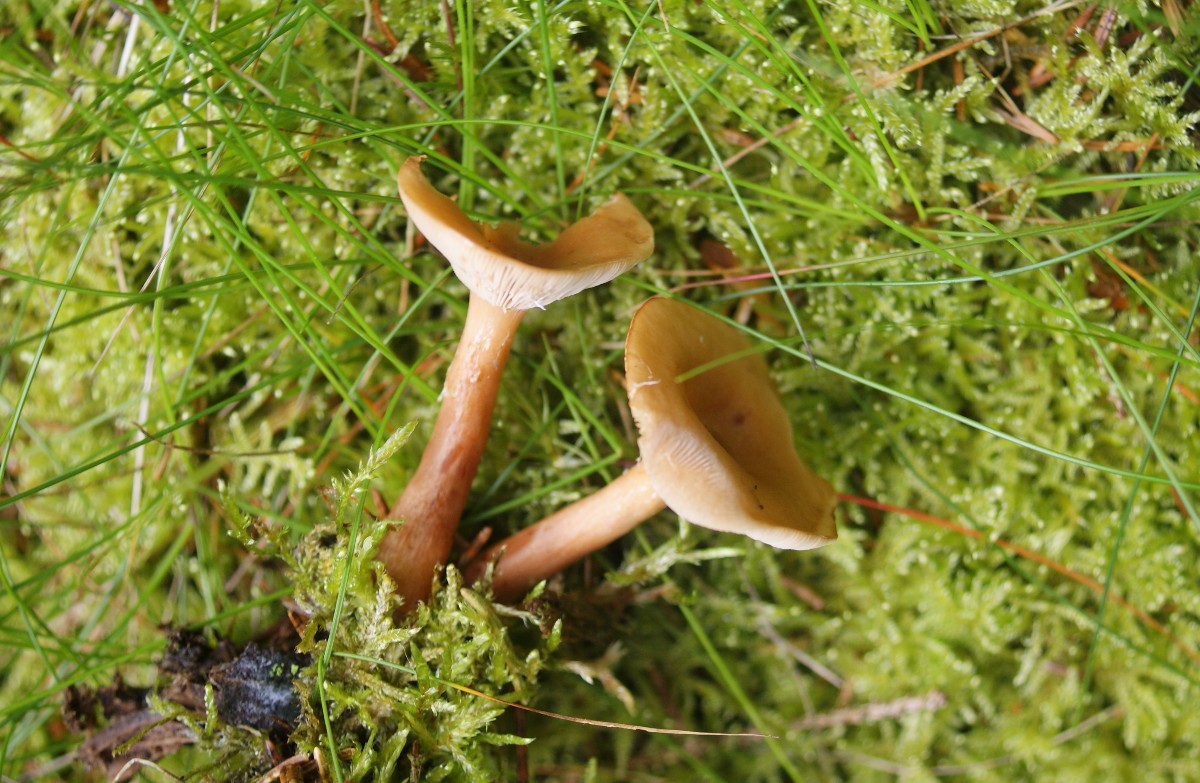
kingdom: Fungi
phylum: Basidiomycota
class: Agaricomycetes
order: Russulales
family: Russulaceae
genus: Lactarius
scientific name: Lactarius tabidus
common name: rynket mælkehat
